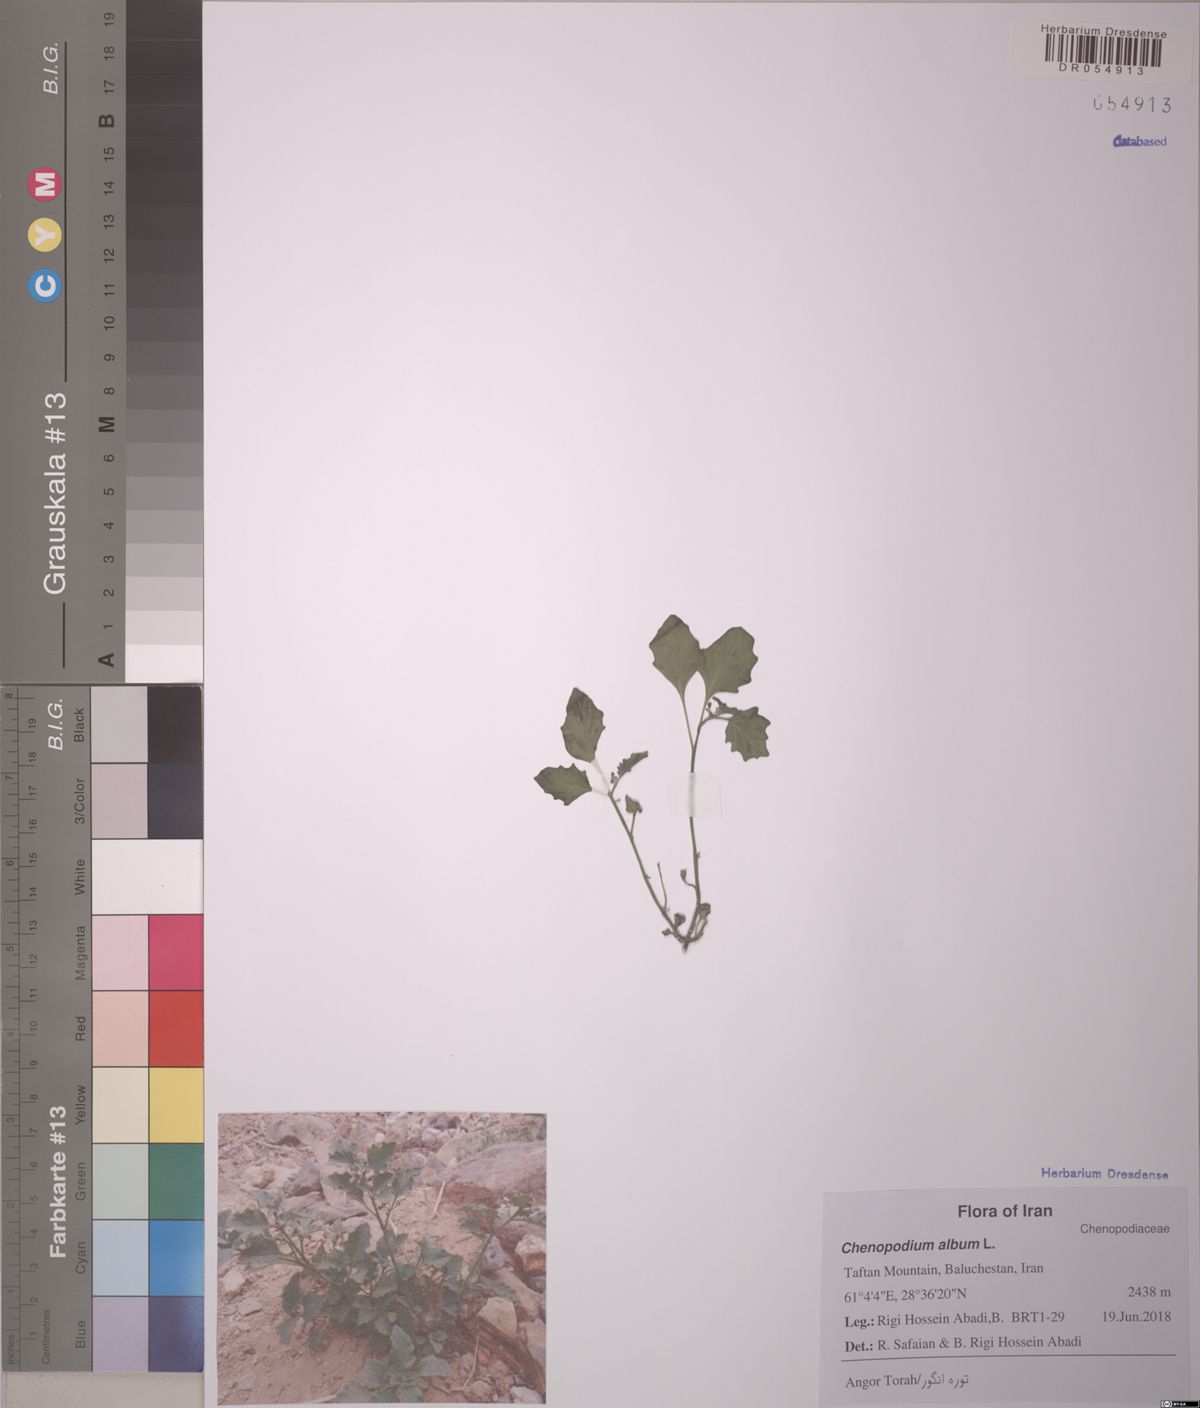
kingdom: Plantae
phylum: Tracheophyta
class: Magnoliopsida
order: Caryophyllales
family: Amaranthaceae
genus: Chenopodium
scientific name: Chenopodium album
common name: Fat-hen
